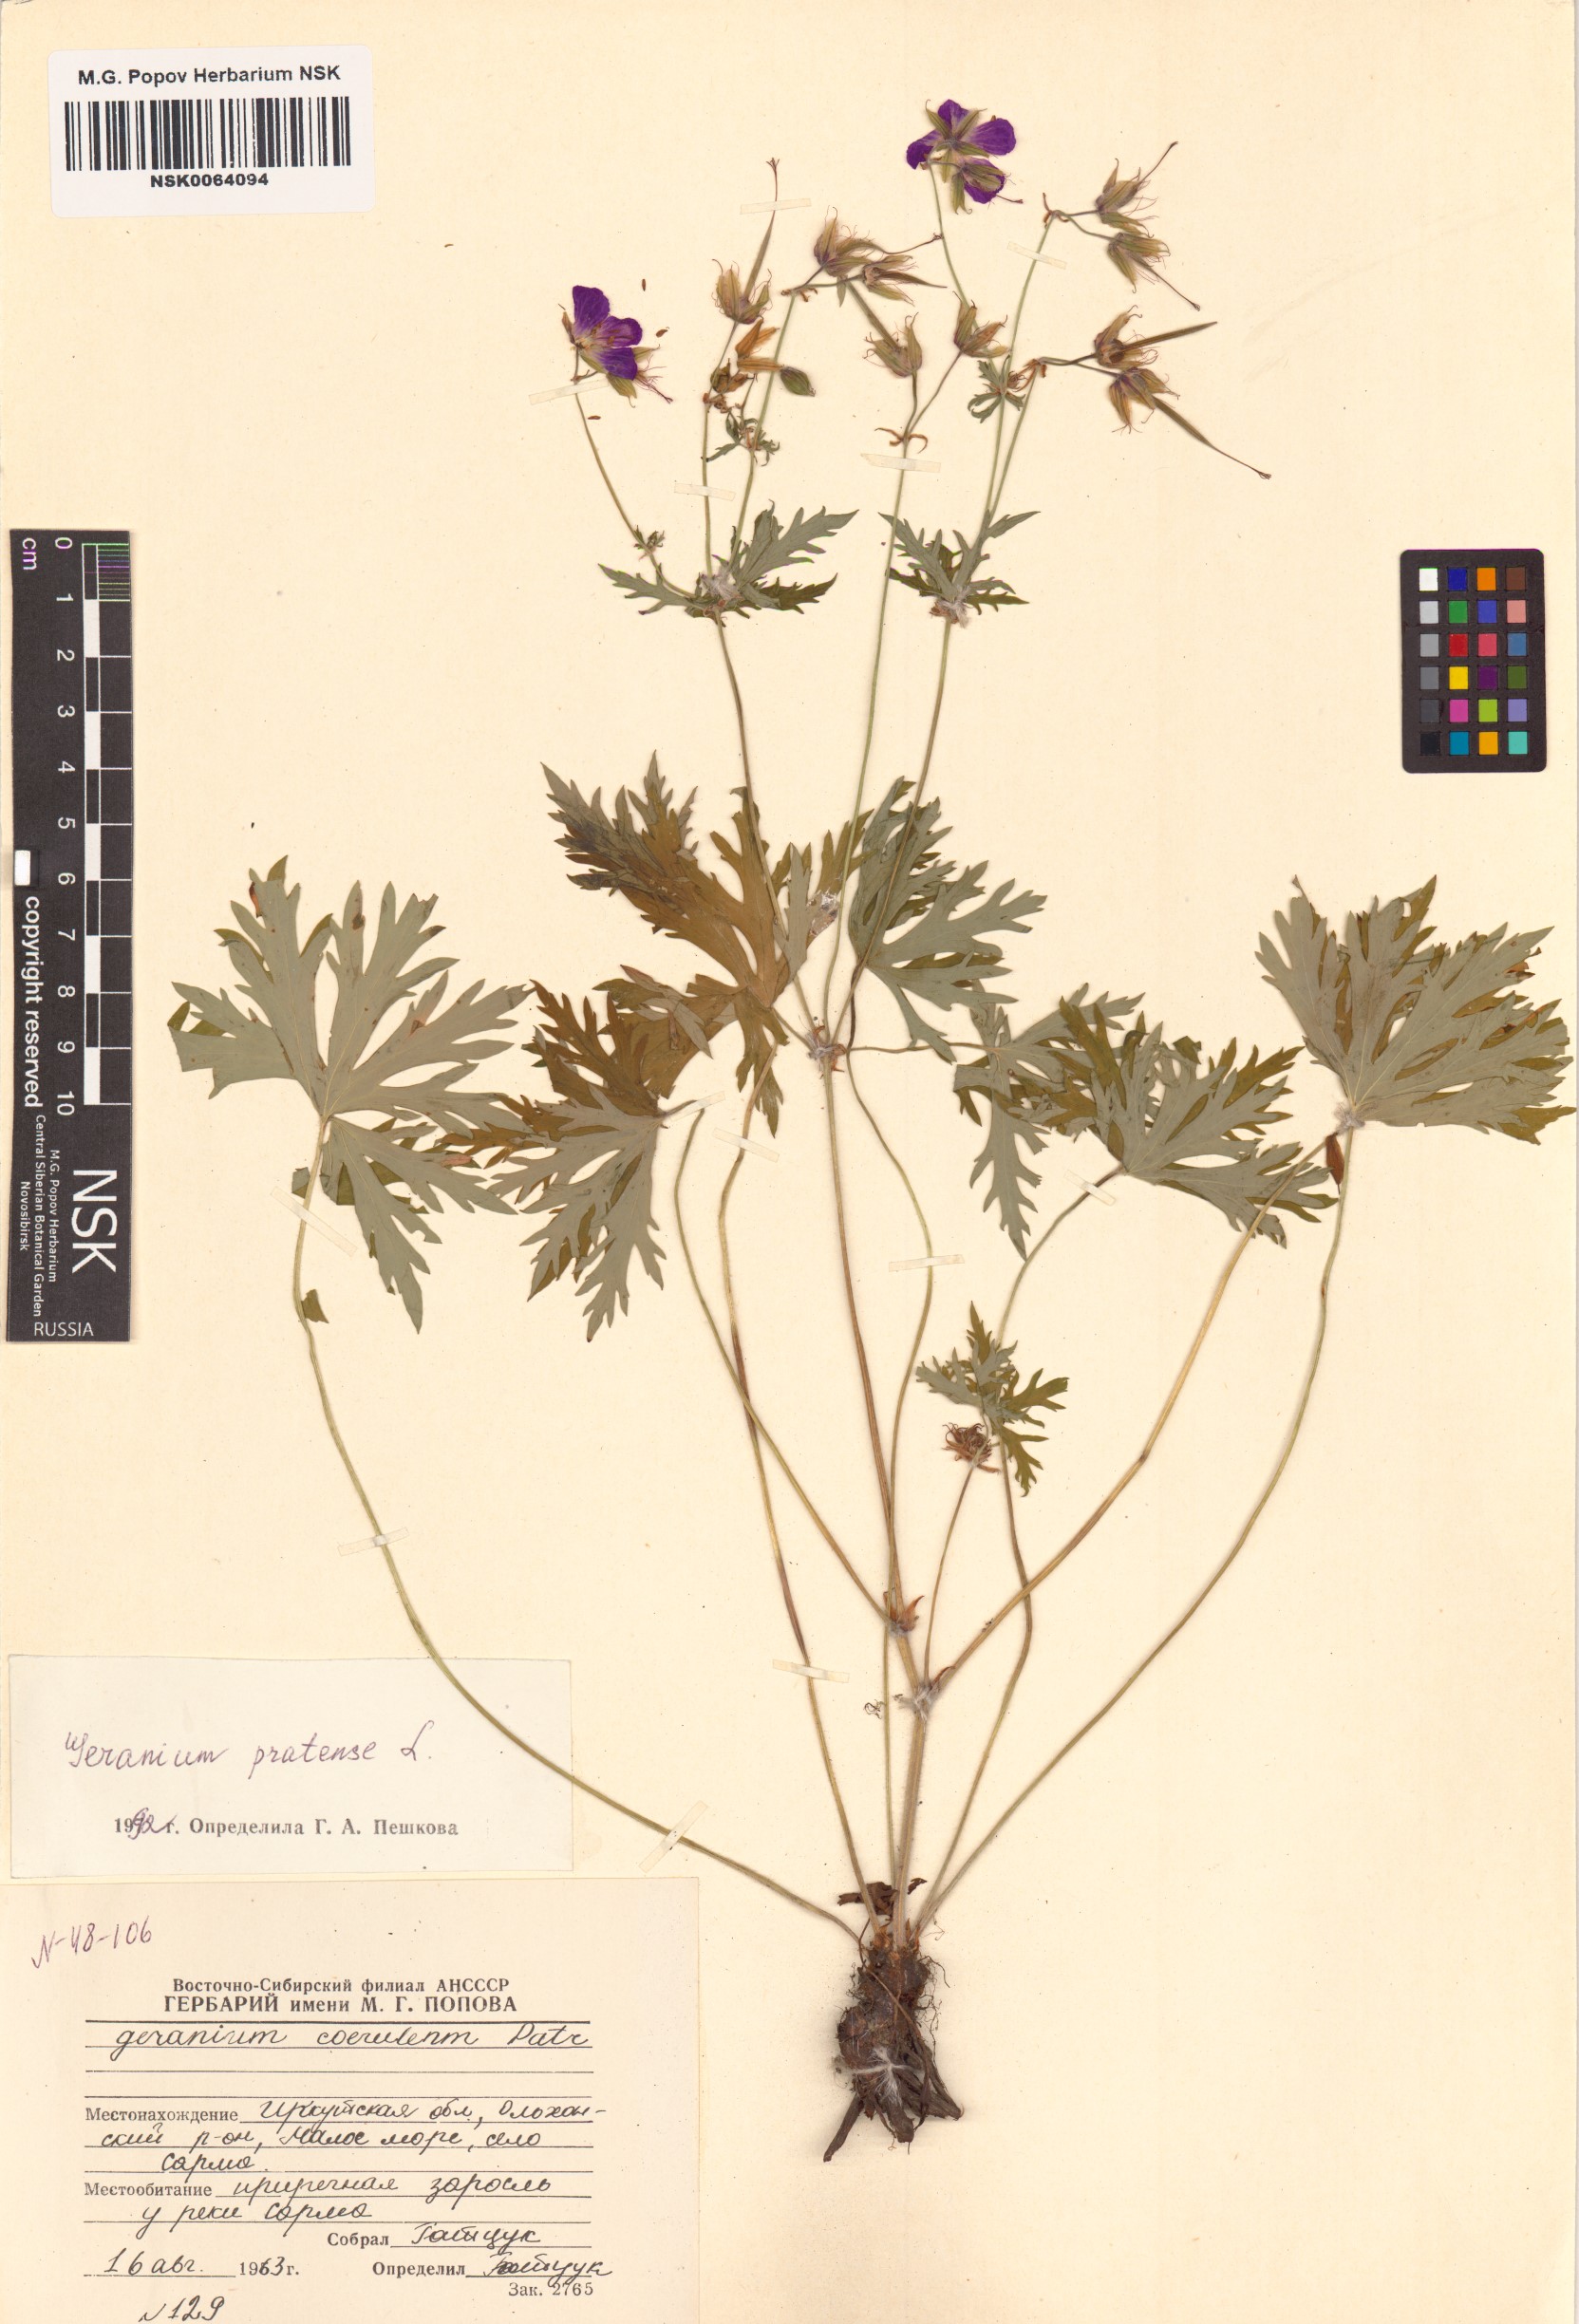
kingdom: Plantae
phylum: Tracheophyta
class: Magnoliopsida
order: Geraniales
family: Geraniaceae
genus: Geranium
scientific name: Geranium pratense
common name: Meadow crane's-bill
